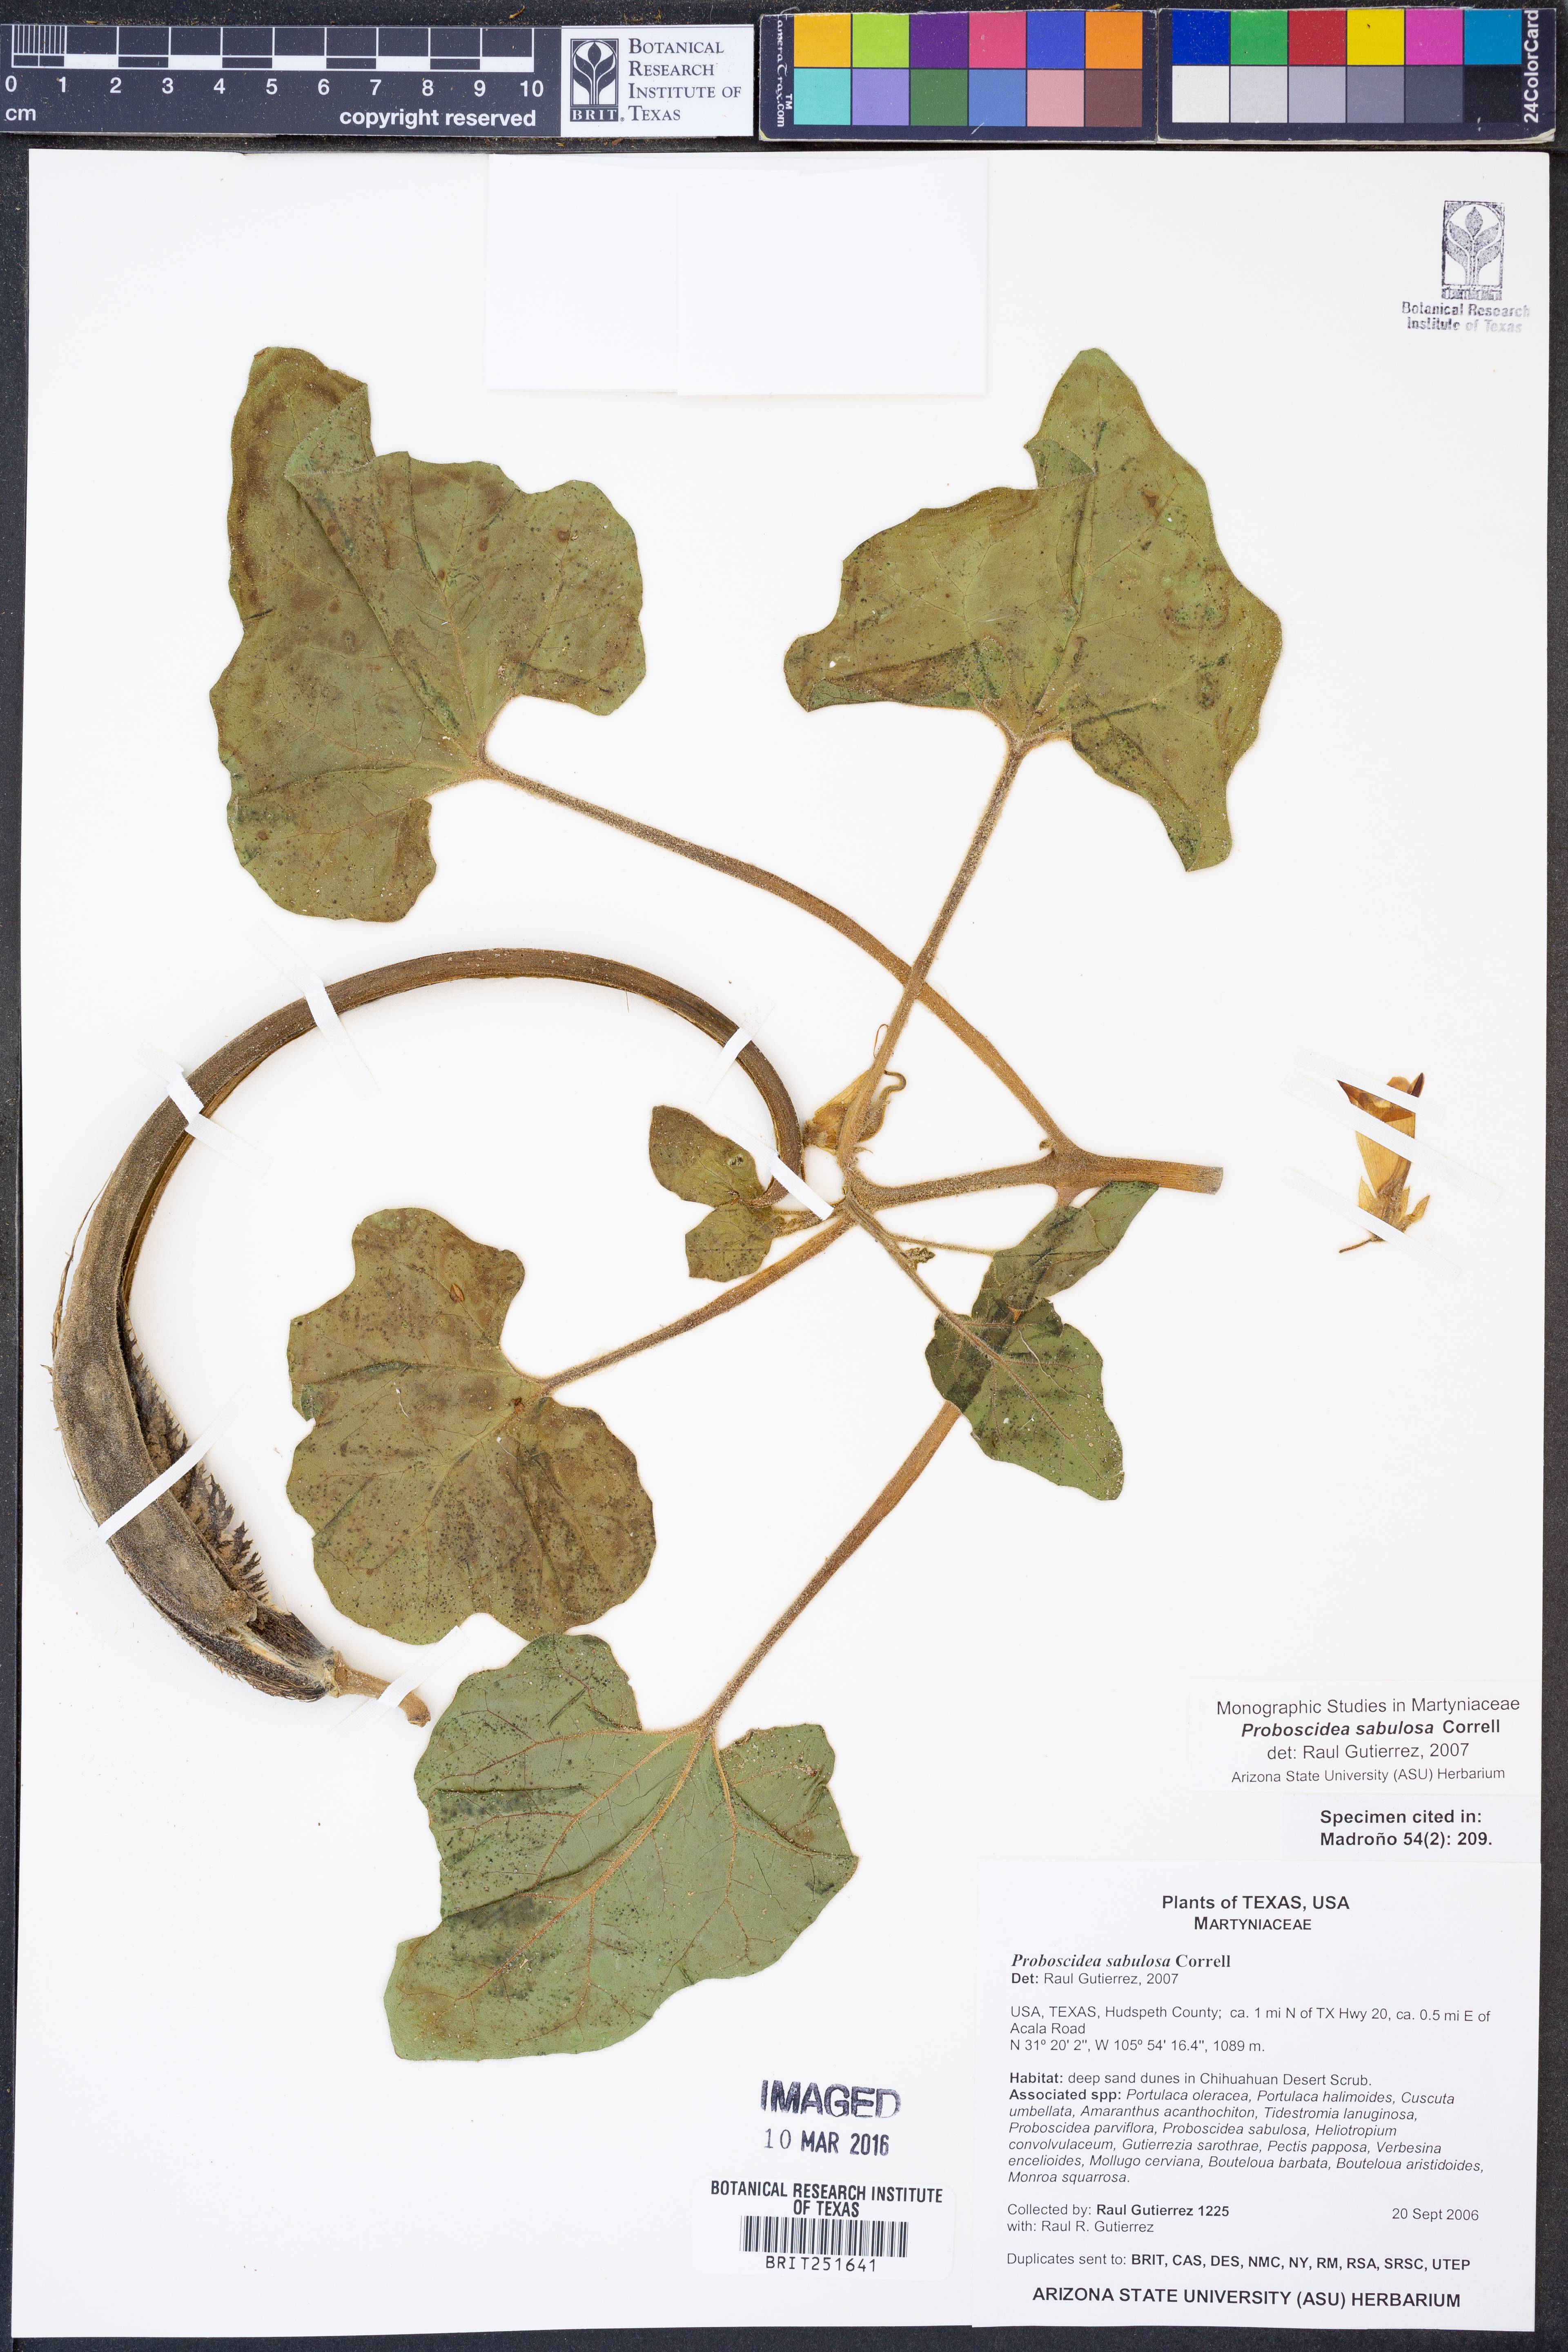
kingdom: Plantae
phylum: Tracheophyta
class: Magnoliopsida
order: Lamiales
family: Martyniaceae
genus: Proboscidea
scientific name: Proboscidea sabulosa
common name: Sand-dune devil's claw
